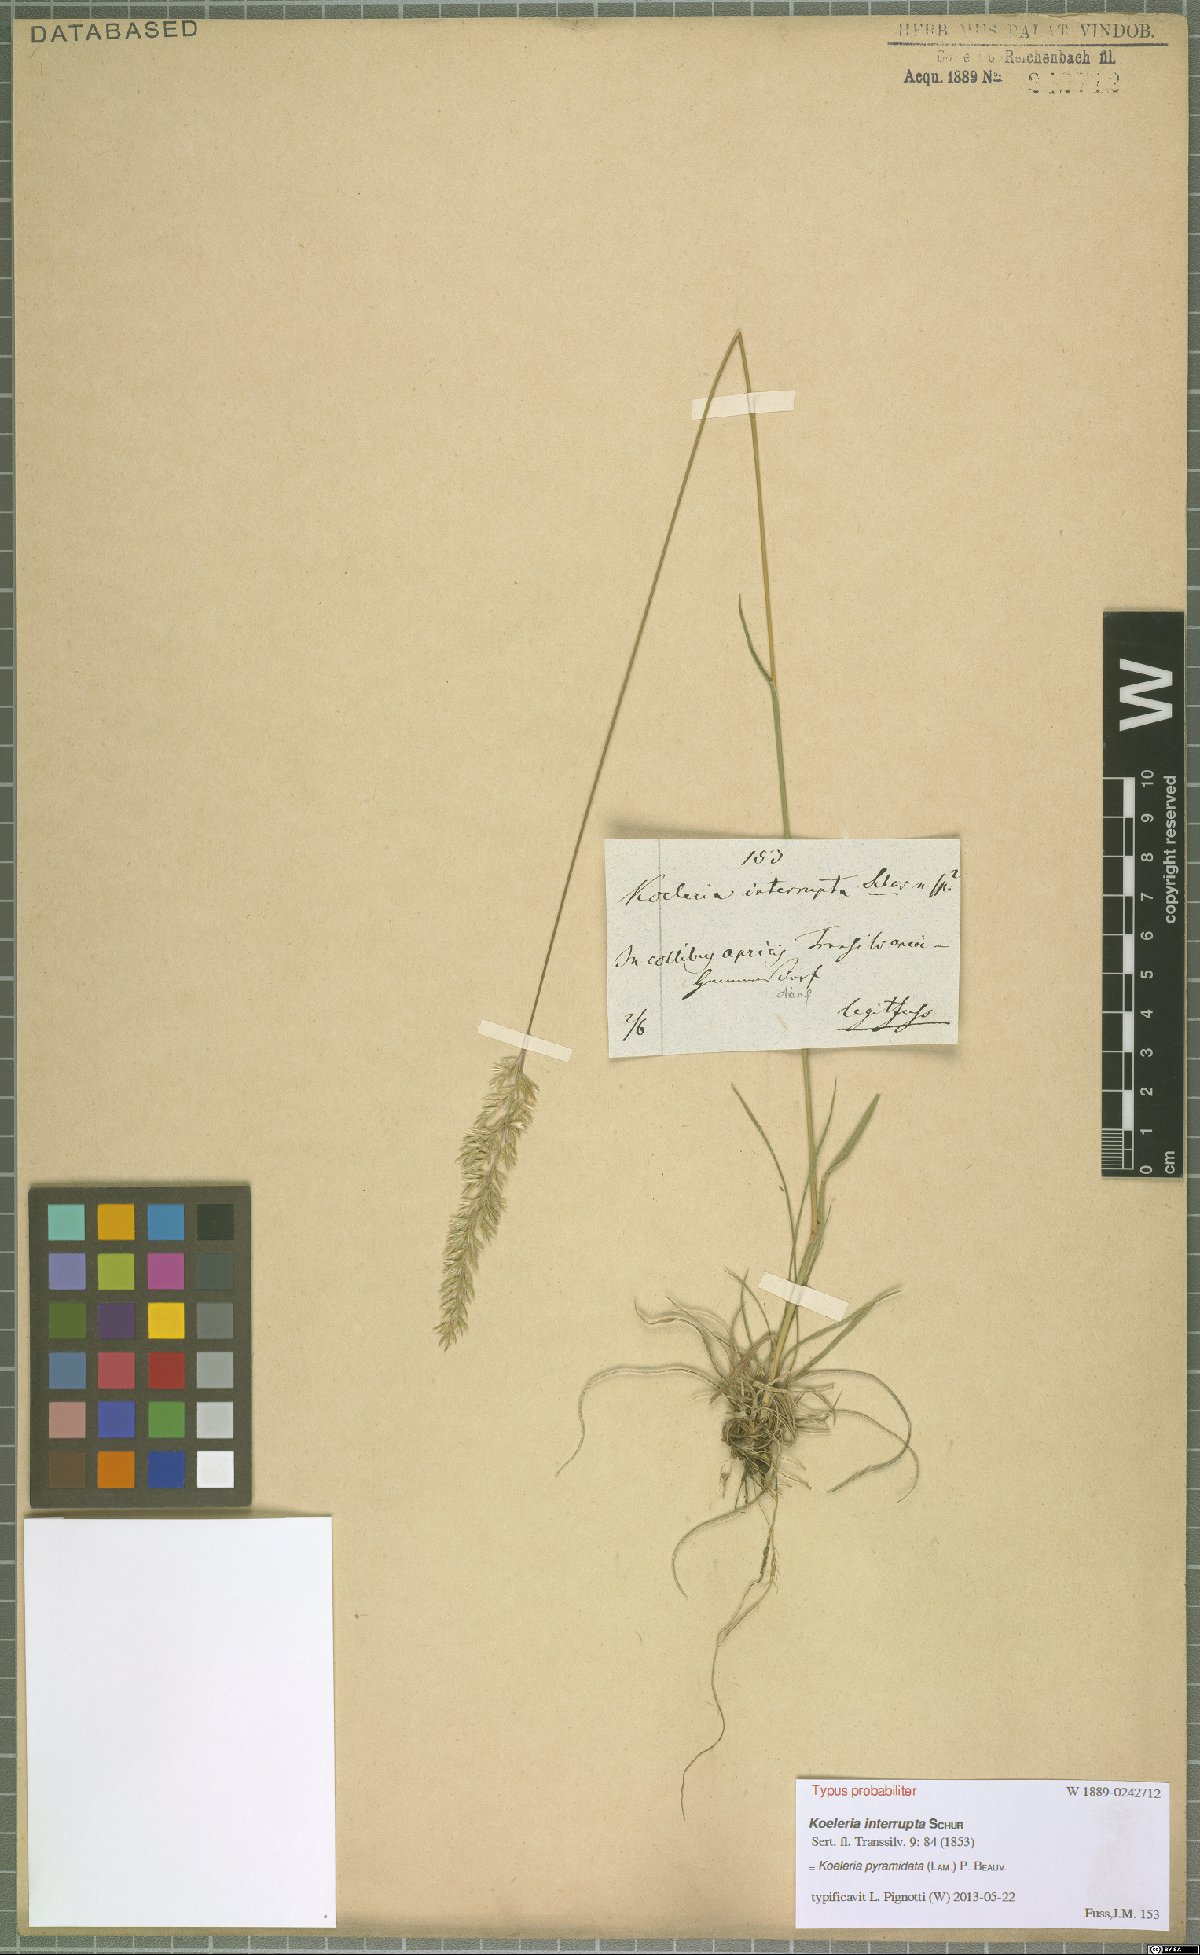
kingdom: Plantae
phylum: Tracheophyta
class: Liliopsida
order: Poales
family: Poaceae
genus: Koeleria
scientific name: Koeleria pyramidata
